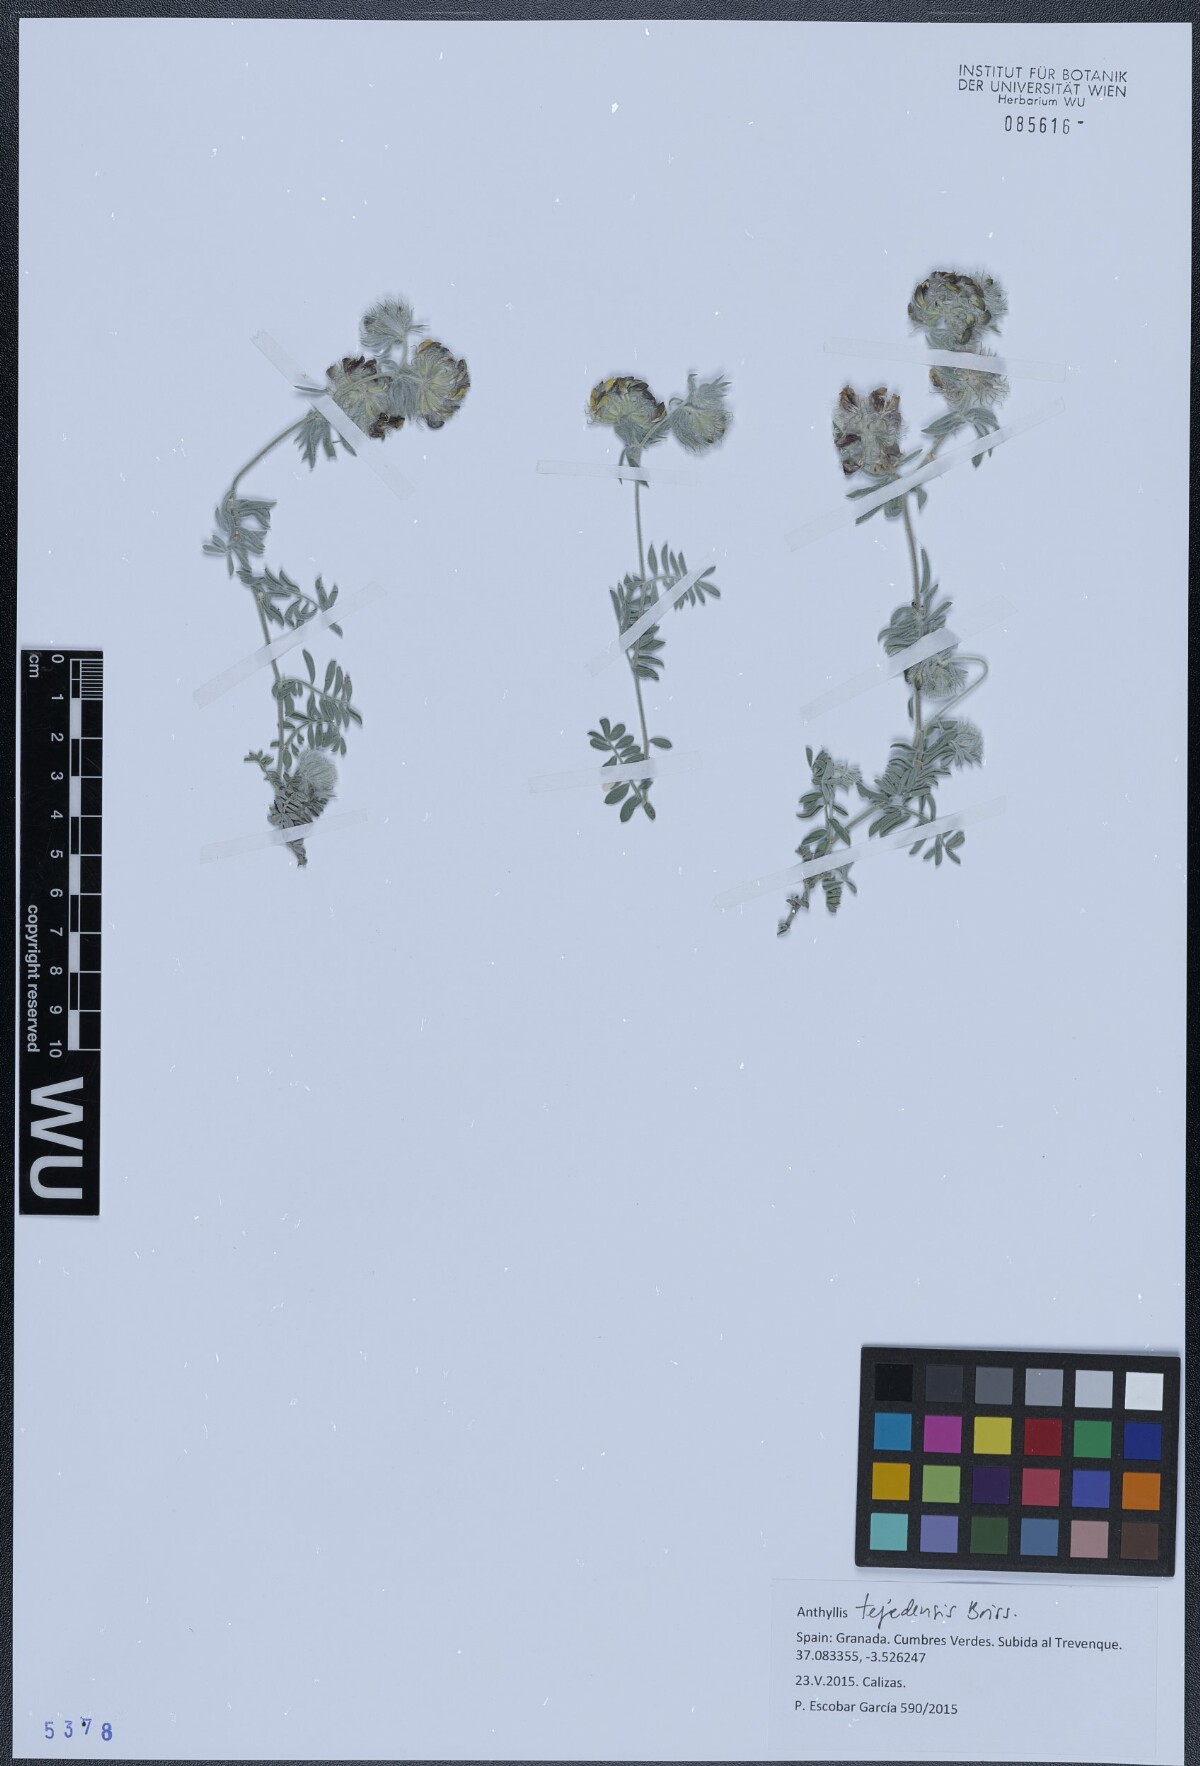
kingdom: Plantae
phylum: Tracheophyta
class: Magnoliopsida
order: Fabales
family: Fabaceae
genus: Anthyllis
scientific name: Anthyllis tejedensis
